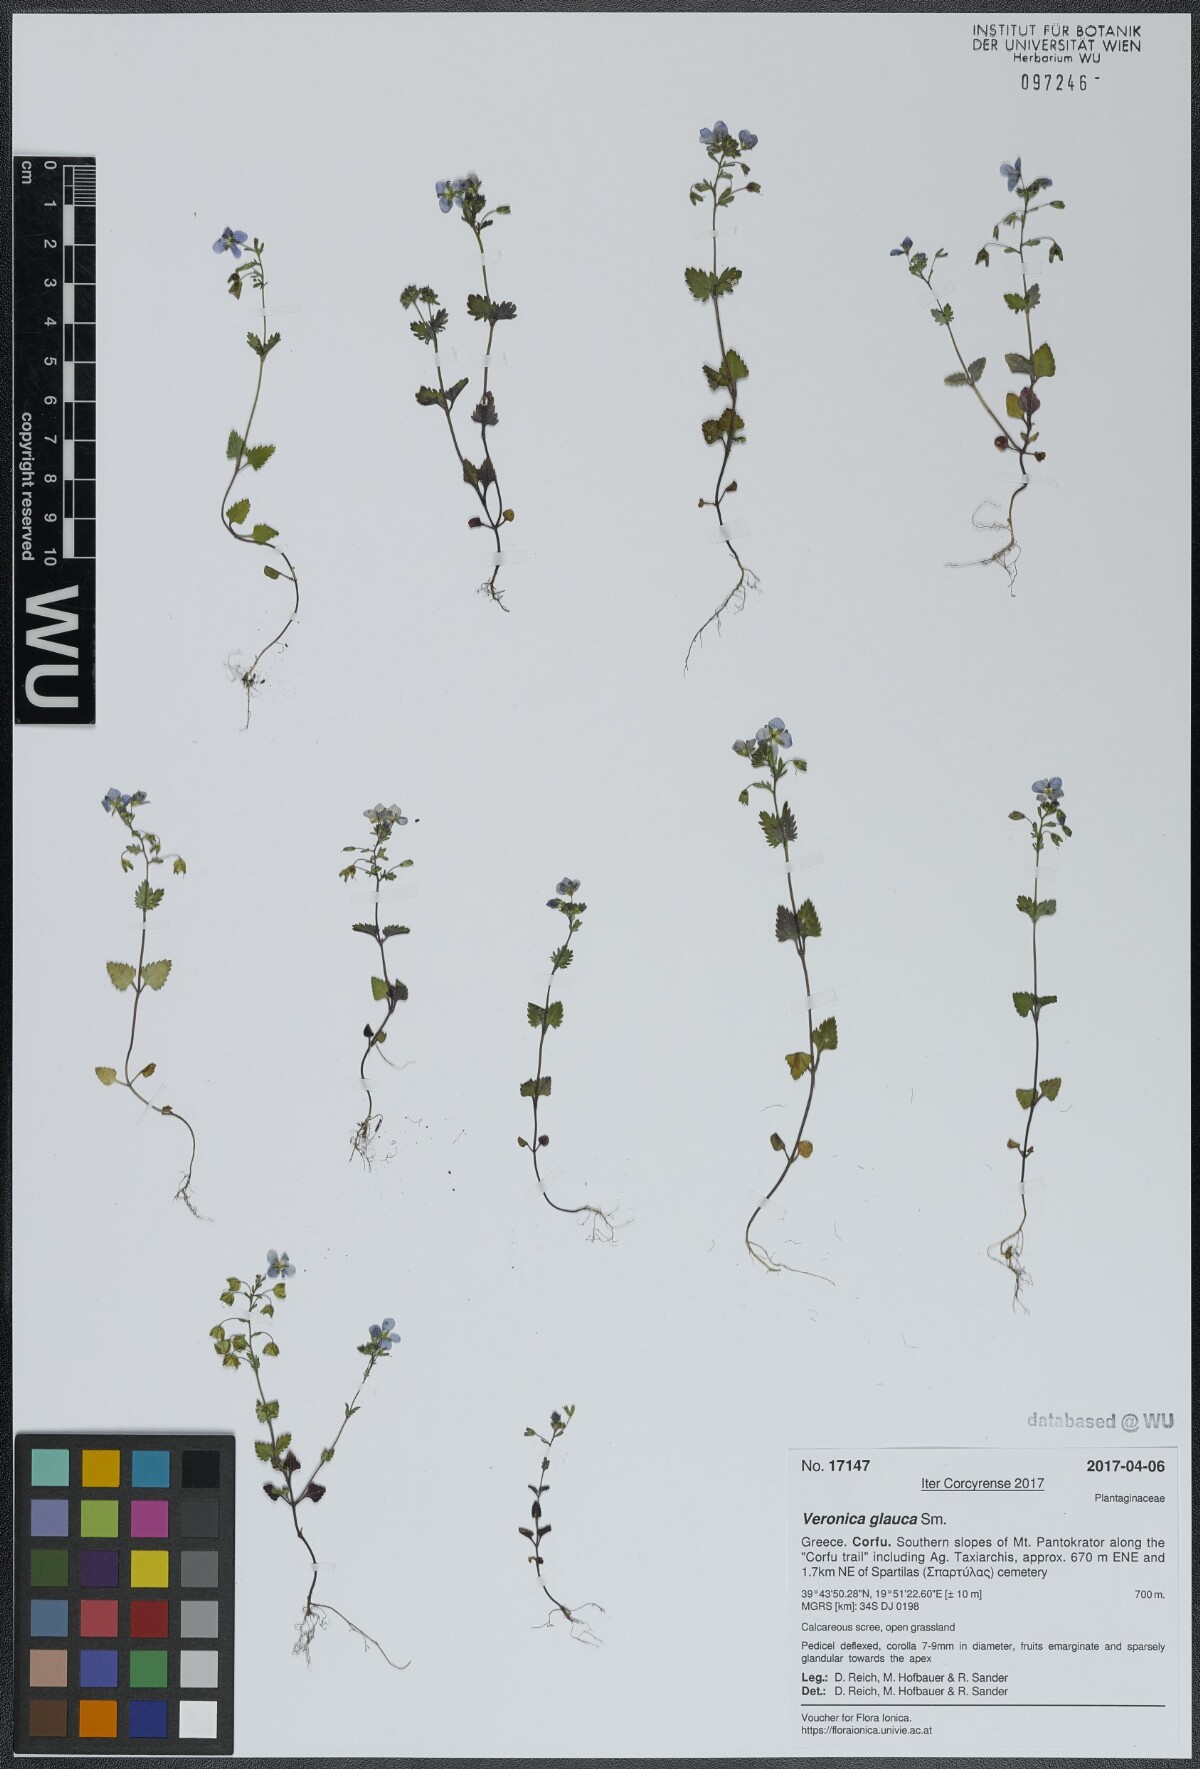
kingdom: Plantae
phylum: Tracheophyta
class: Magnoliopsida
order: Lamiales
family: Plantaginaceae
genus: Veronica
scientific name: Veronica glauca
